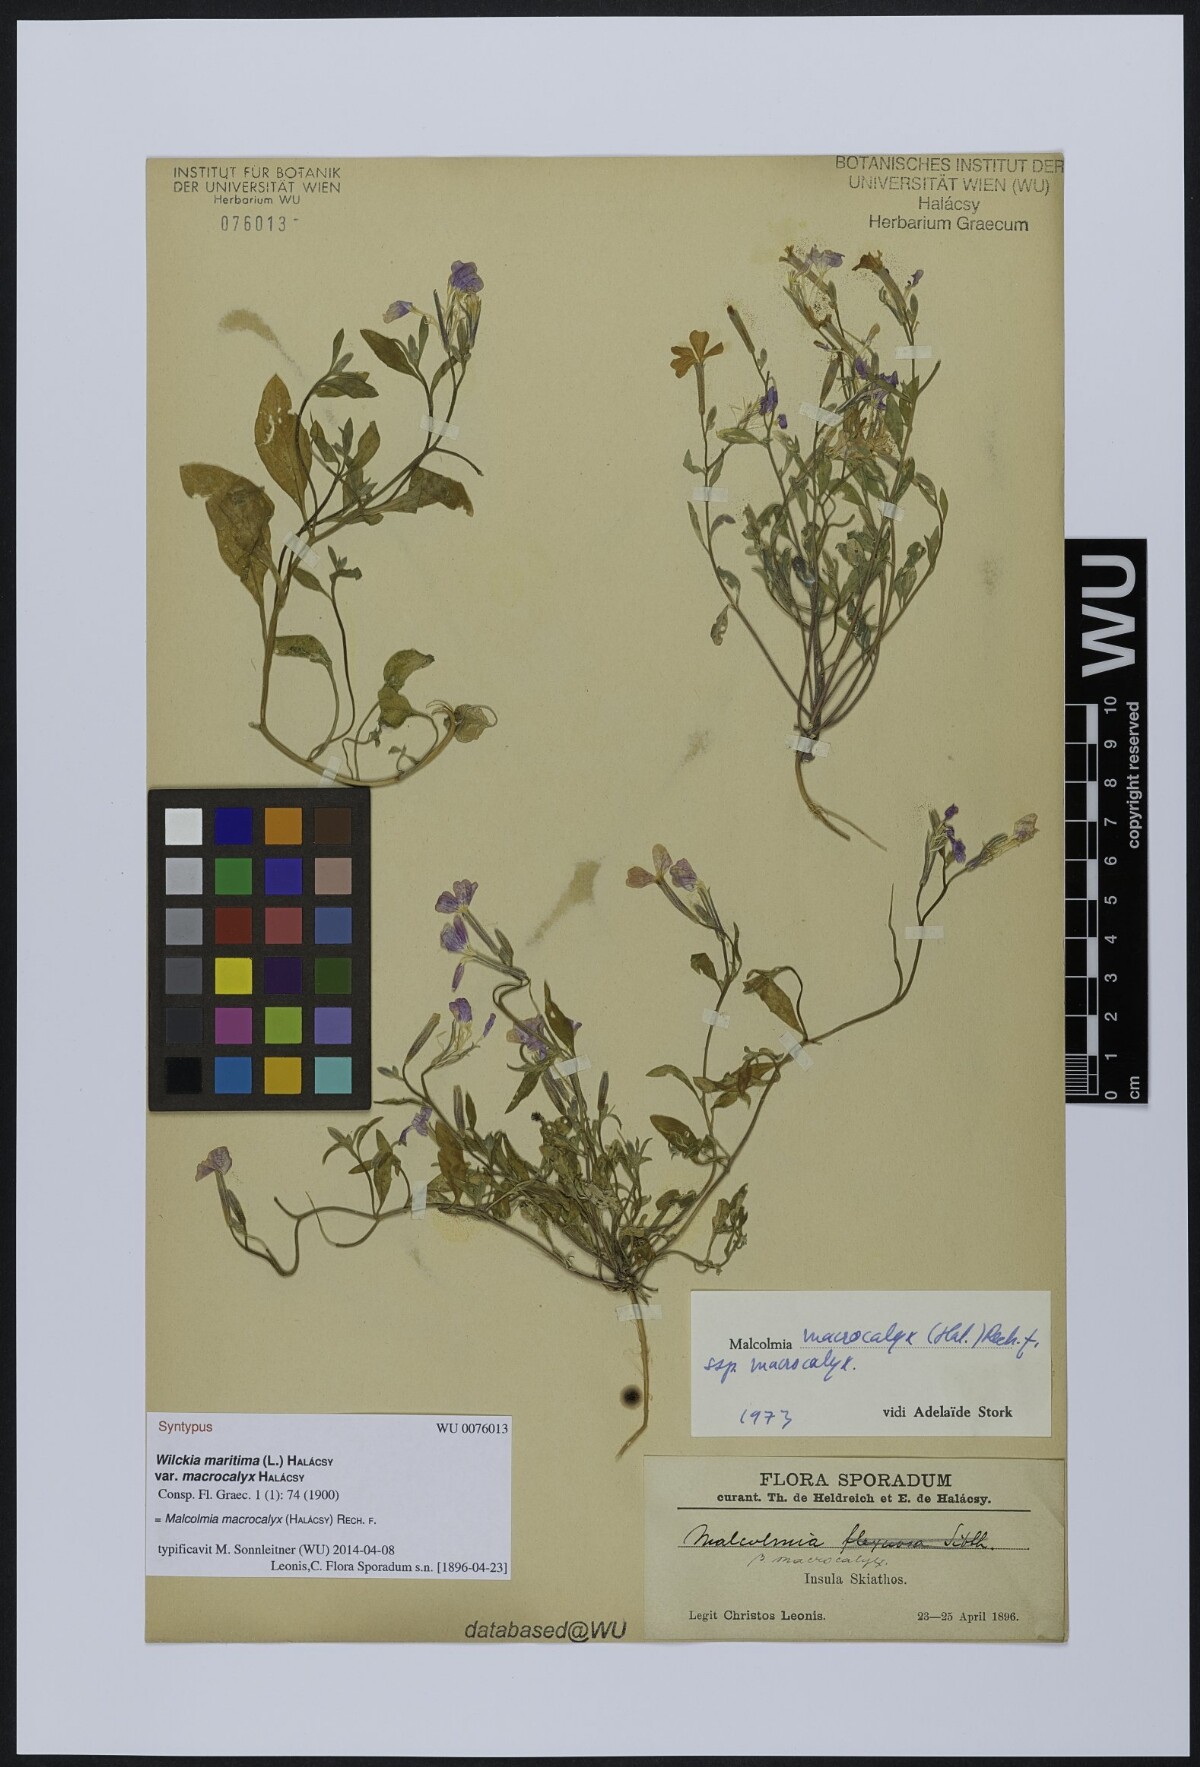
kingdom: Plantae
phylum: Tracheophyta
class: Magnoliopsida
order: Brassicales
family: Brassicaceae
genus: Malcolmia
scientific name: Malcolmia macrocalyx
